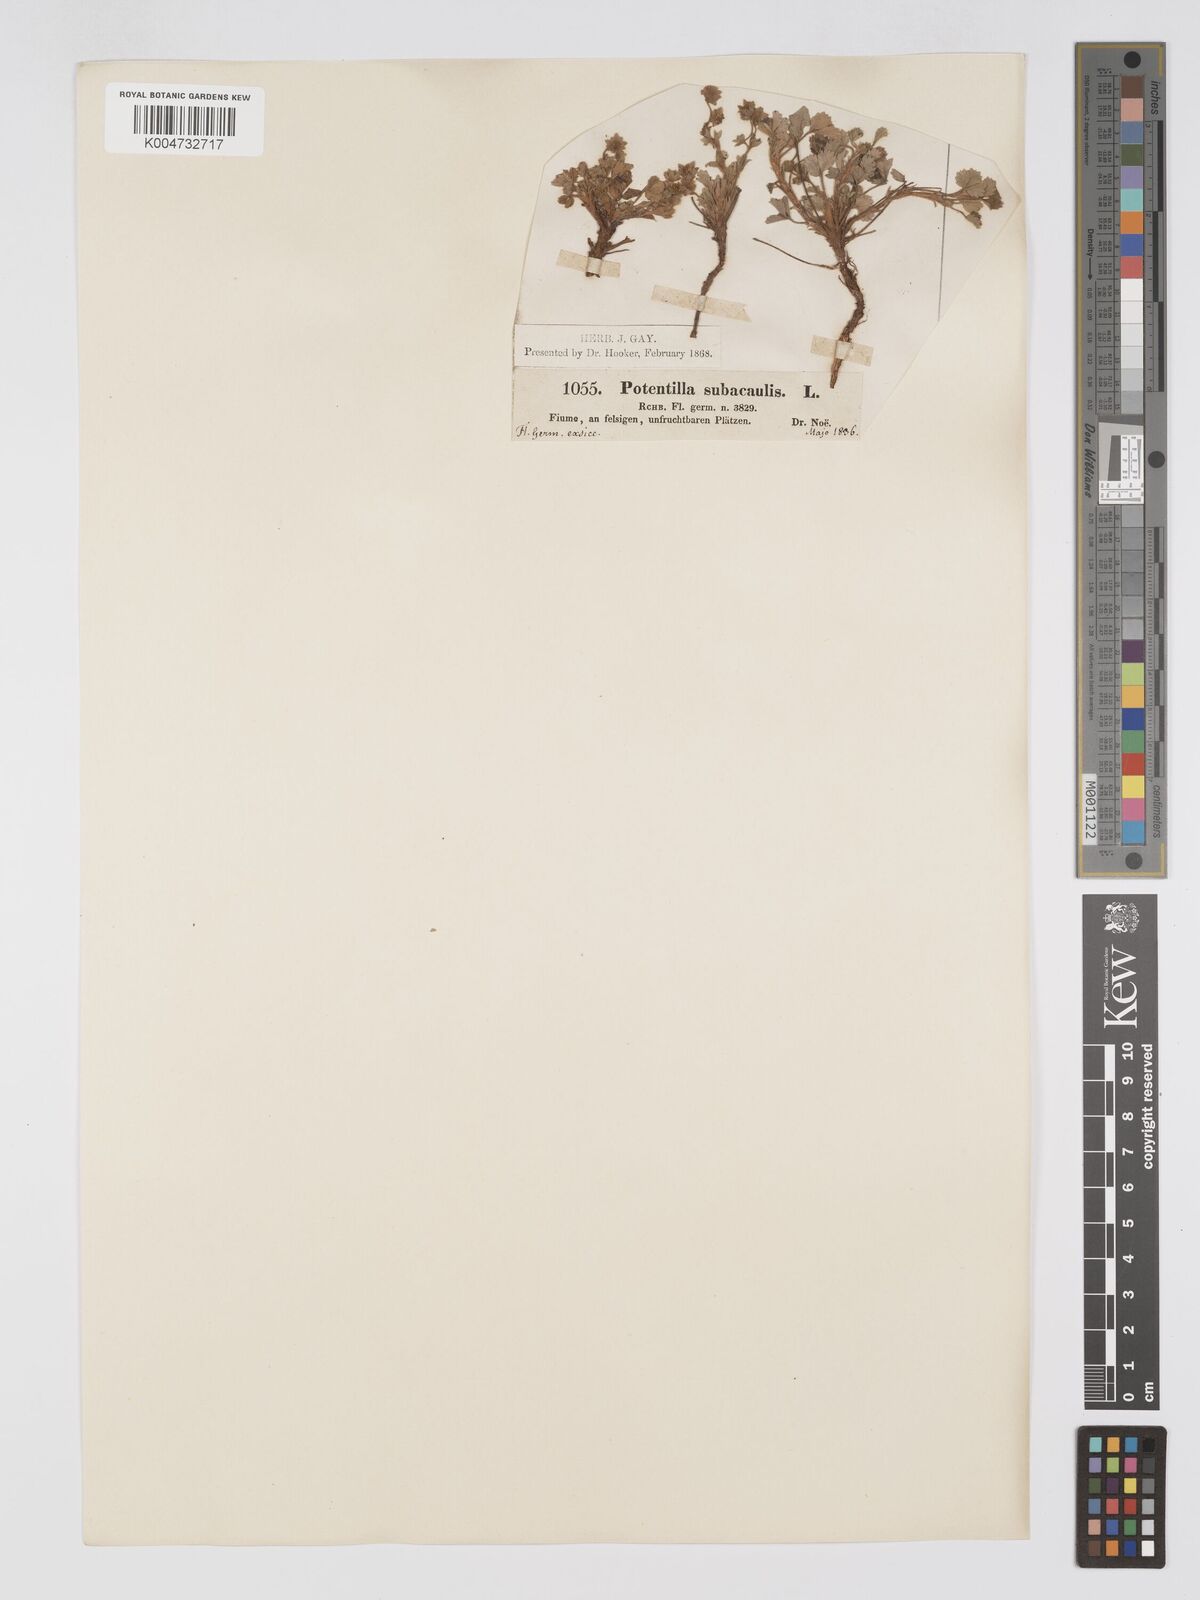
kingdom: Plantae
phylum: Tracheophyta
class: Magnoliopsida
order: Rosales
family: Rosaceae
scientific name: Rosaceae
